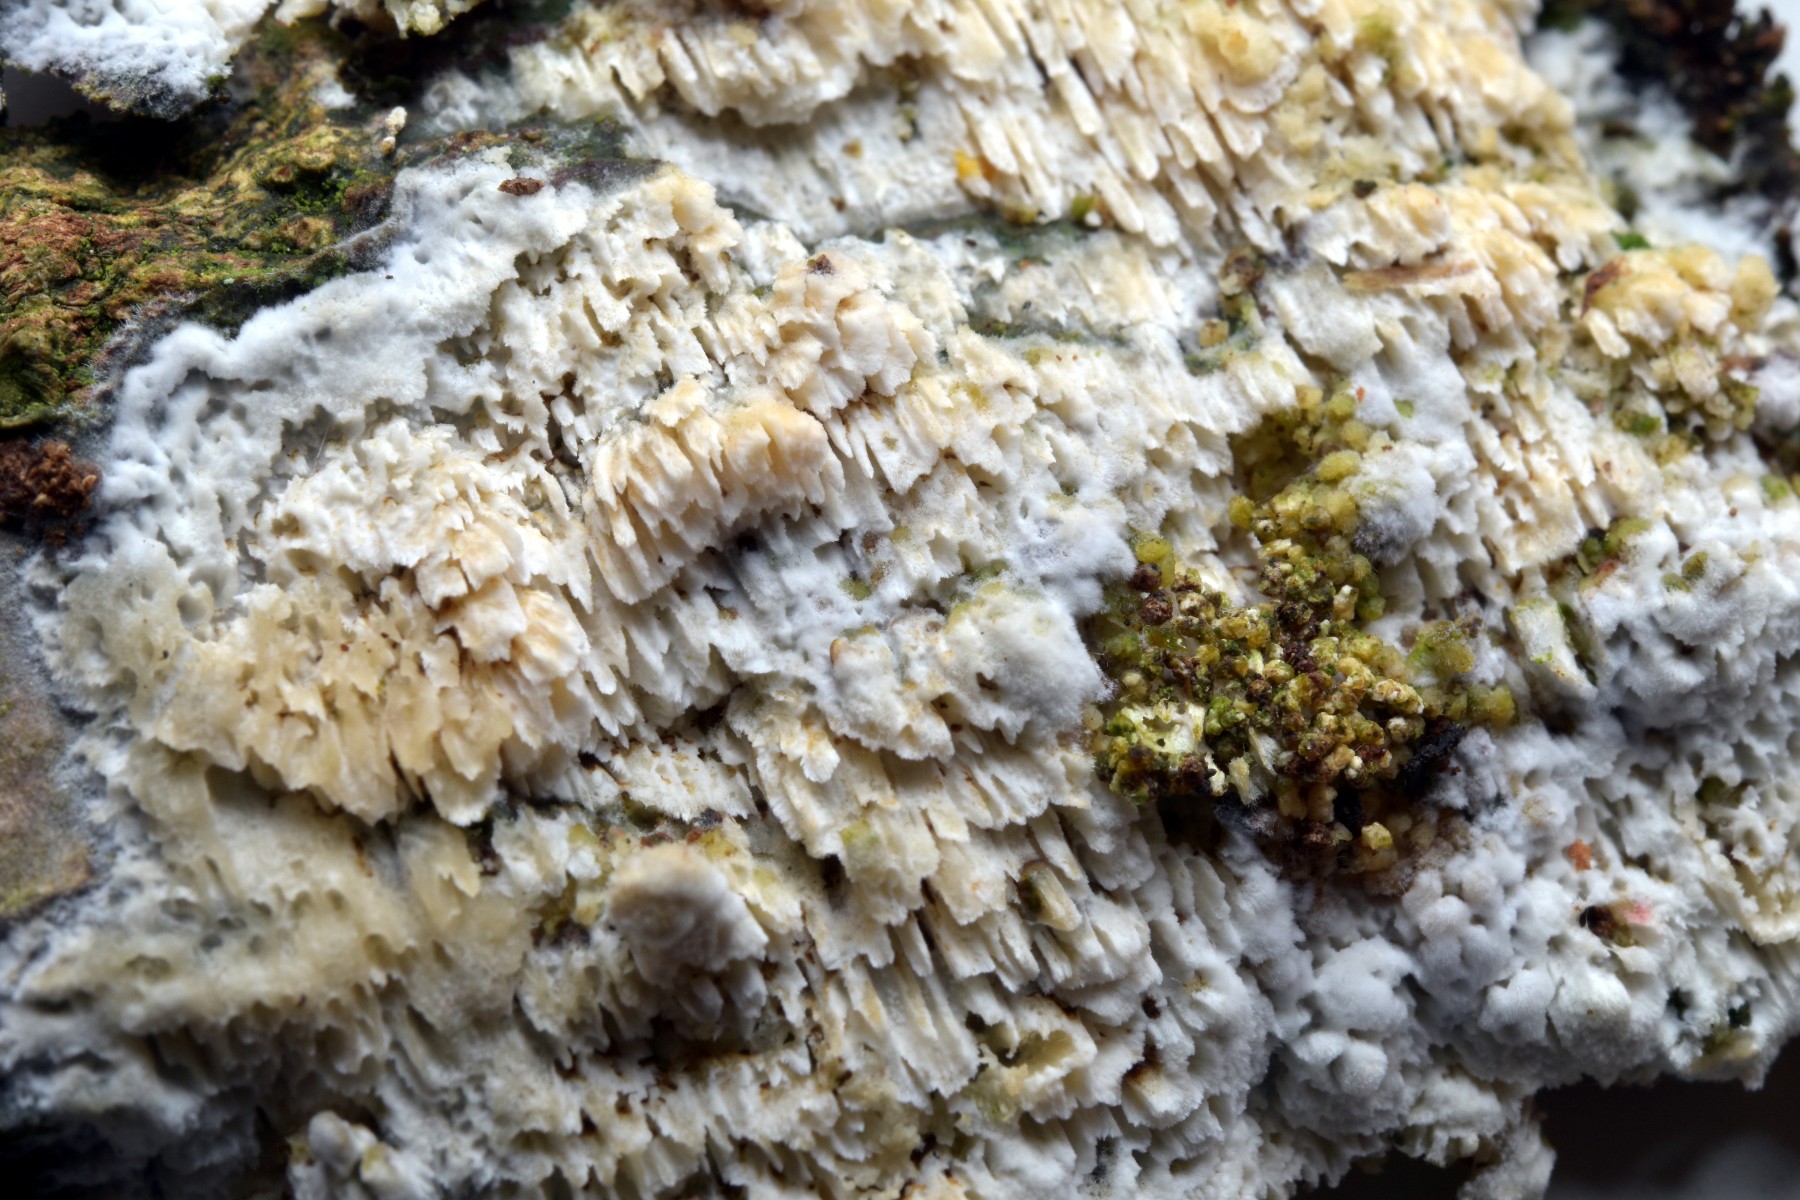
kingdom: Fungi
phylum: Basidiomycota
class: Agaricomycetes
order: Hymenochaetales
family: Schizoporaceae
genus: Schizopora
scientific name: Schizopora paradoxa
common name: hvid tandsvamp
